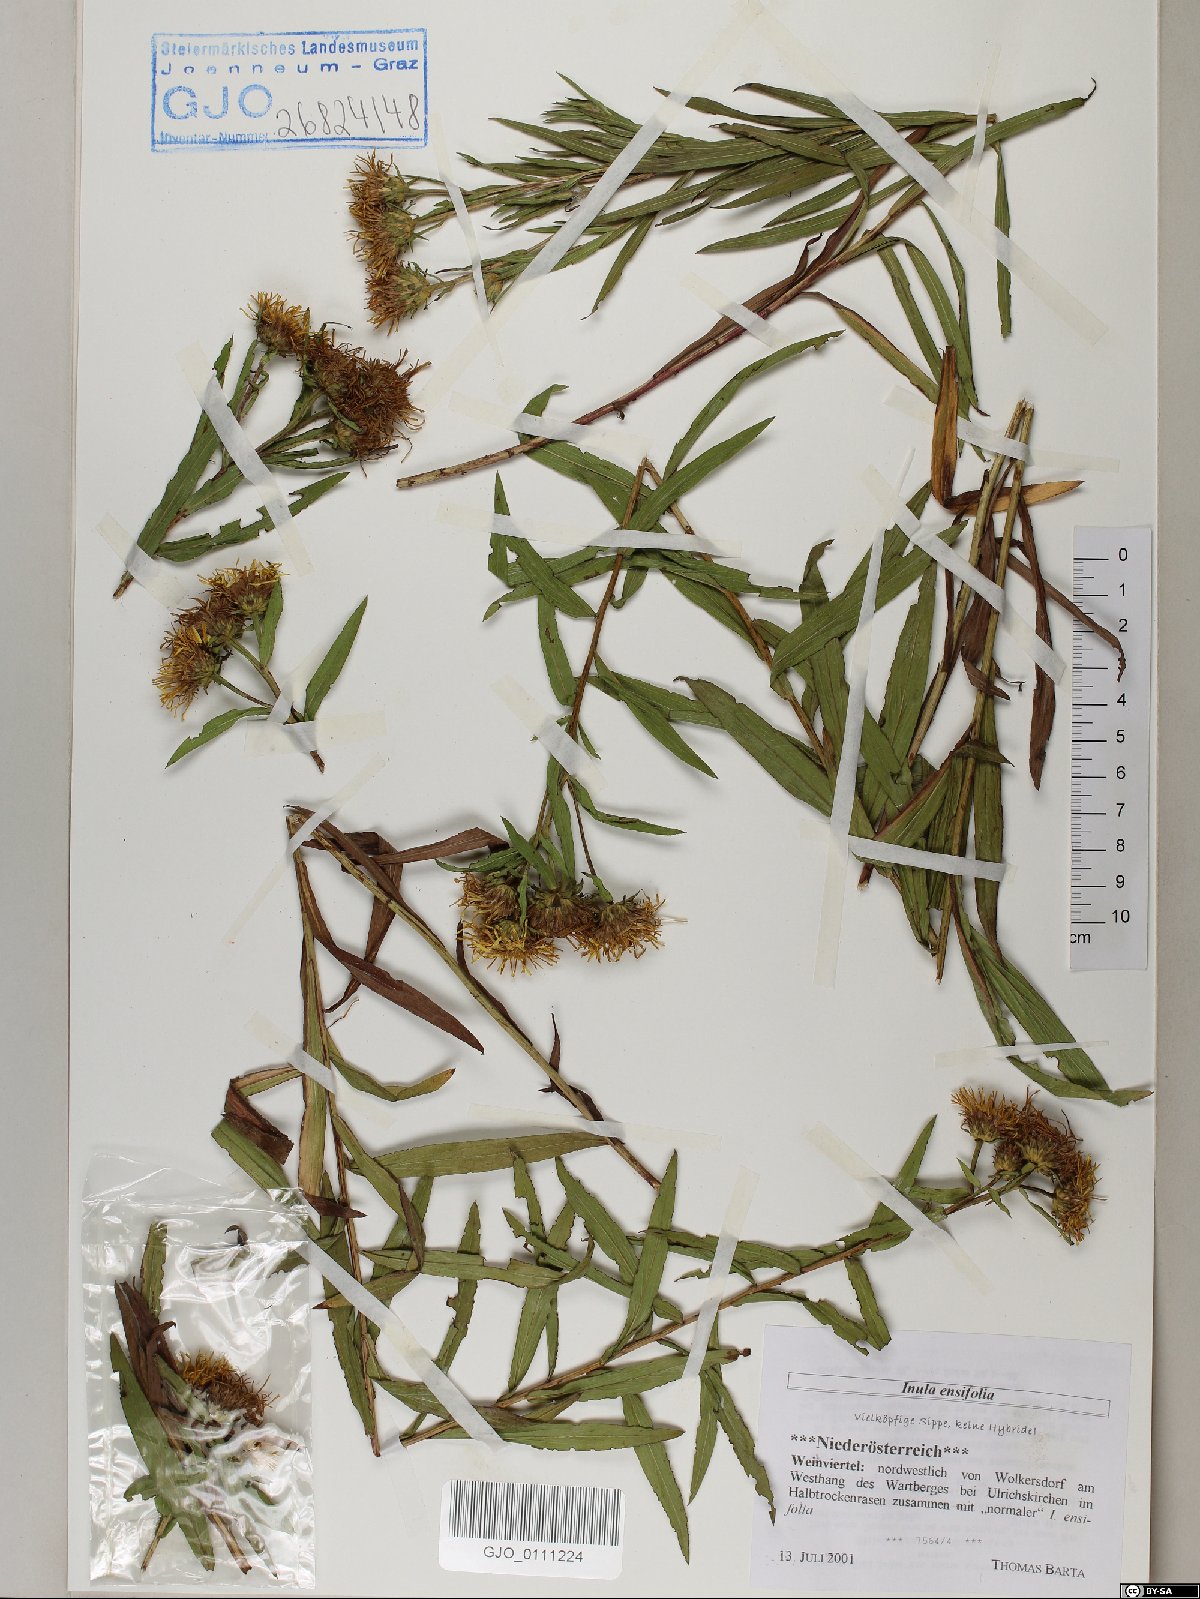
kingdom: Plantae
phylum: Tracheophyta
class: Magnoliopsida
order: Asterales
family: Asteraceae
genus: Pentanema
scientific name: Pentanema ensifolium
